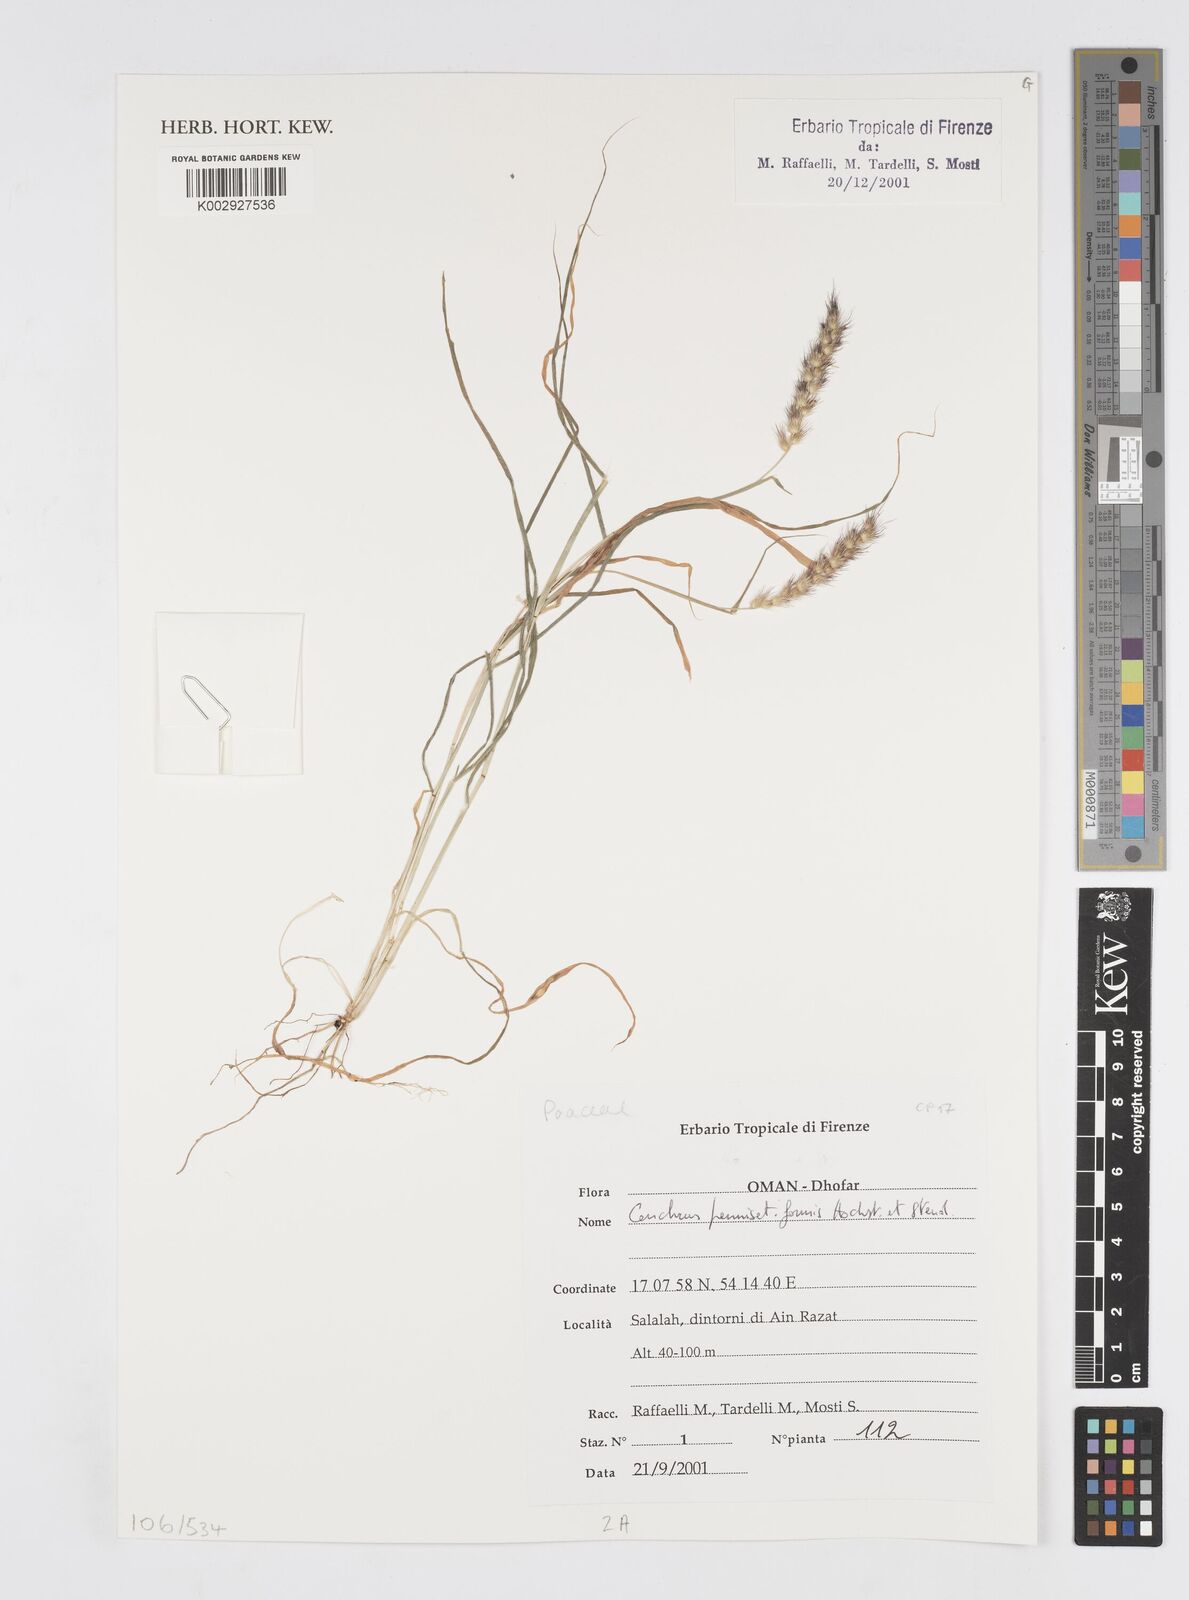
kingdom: Plantae
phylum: Tracheophyta
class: Liliopsida
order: Poales
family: Poaceae
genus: Cenchrus
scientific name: Cenchrus pennisetiformis
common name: Cloncurry
